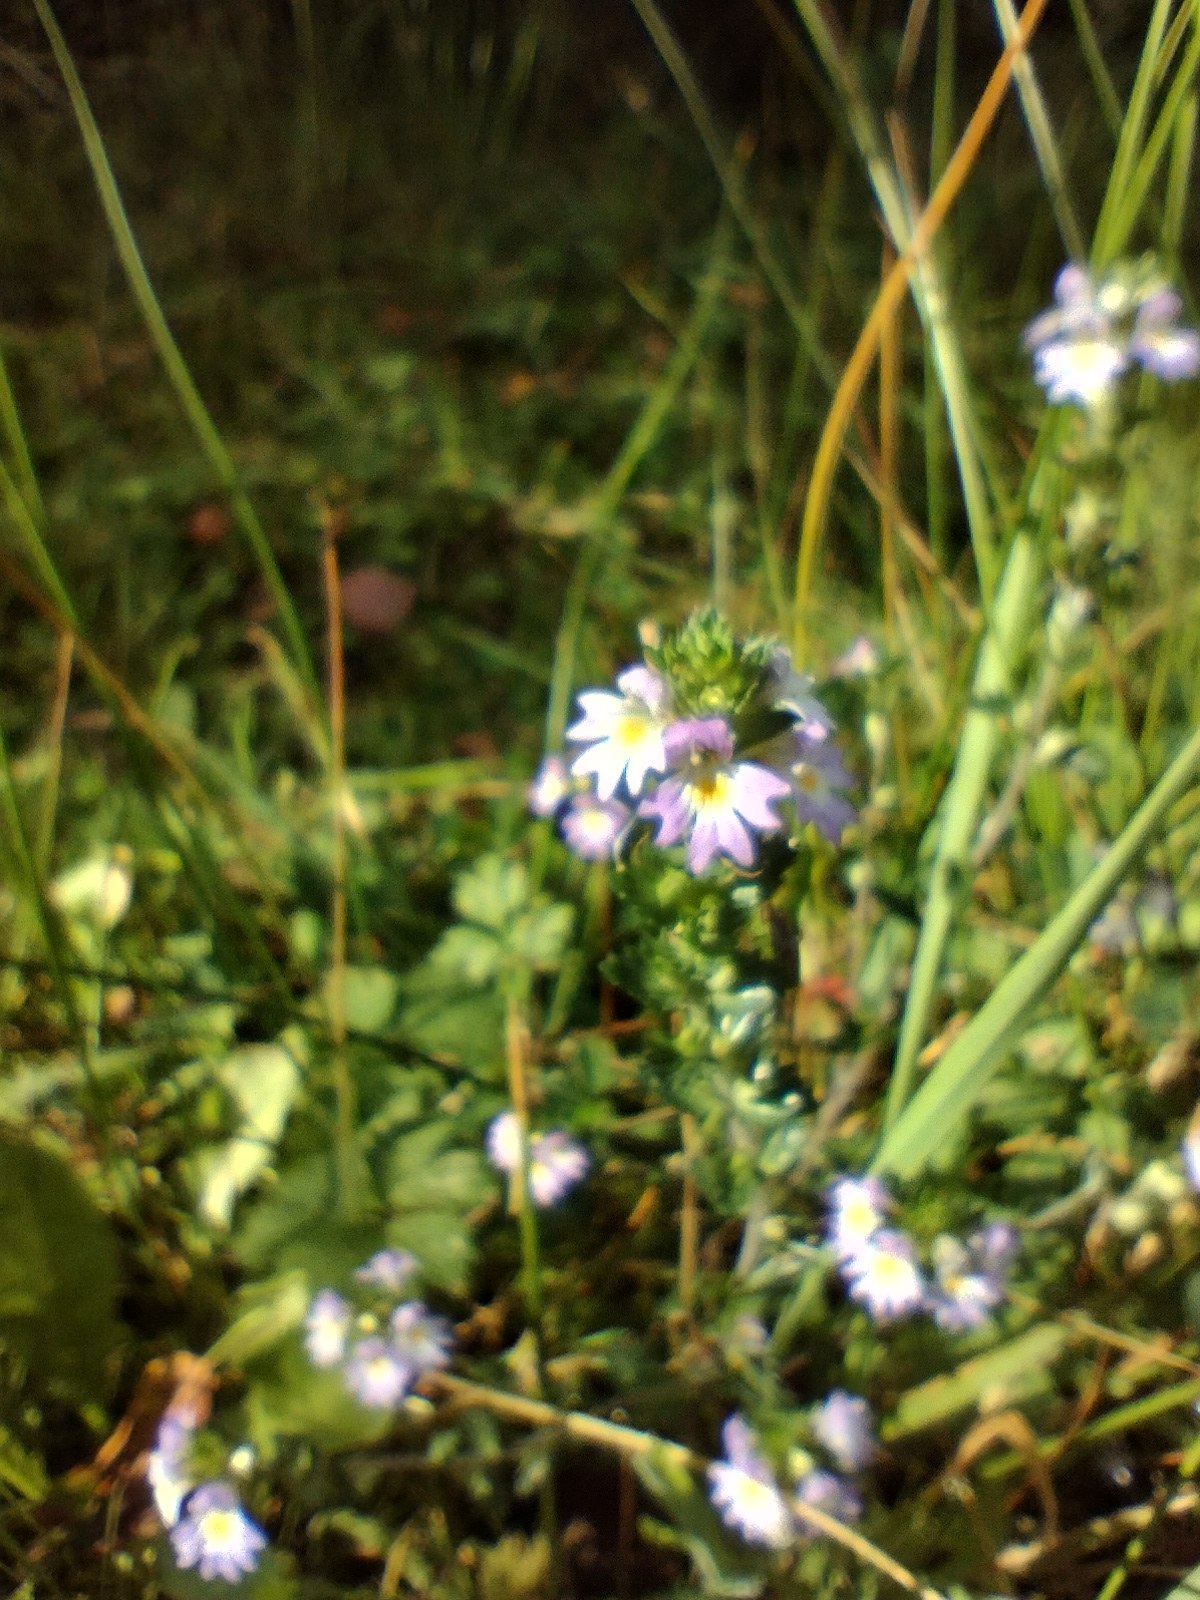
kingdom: Plantae
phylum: Tracheophyta
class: Magnoliopsida
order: Lamiales
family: Orobanchaceae
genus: Euphrasia
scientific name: Euphrasia
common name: Øjentrøstslægten
